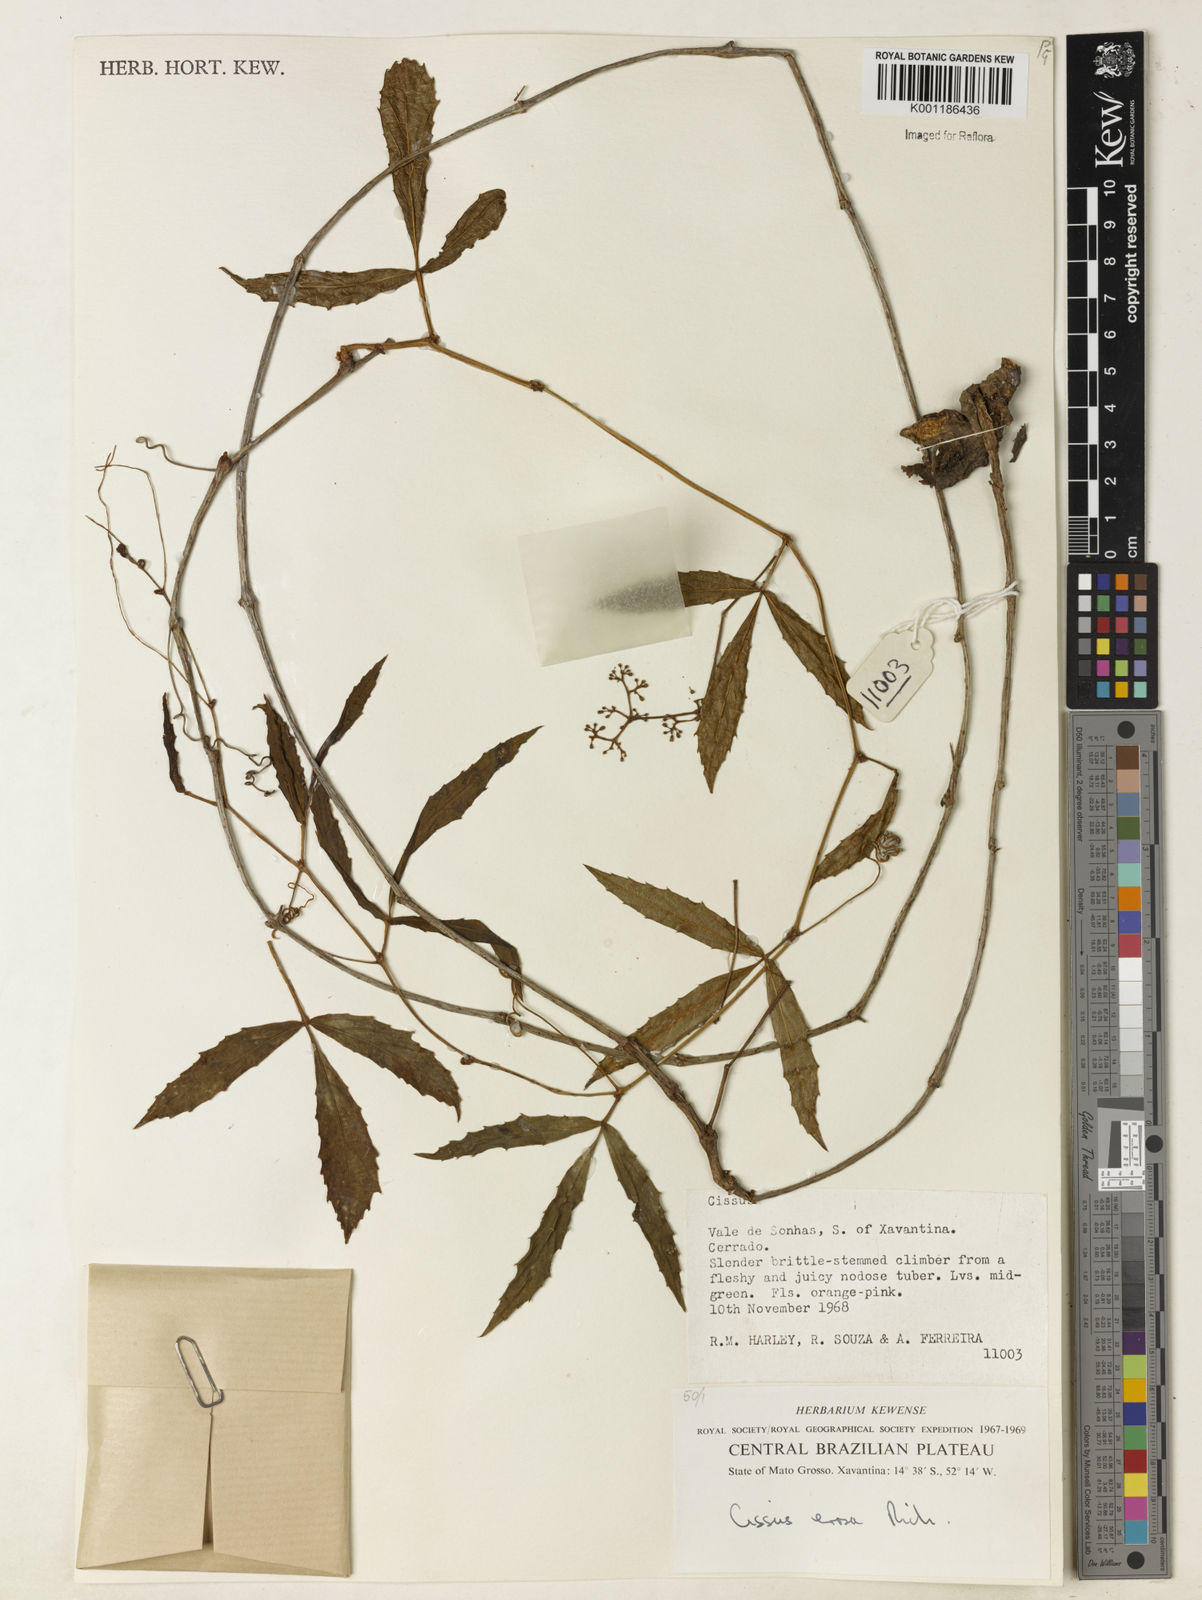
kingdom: Plantae
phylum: Tracheophyta
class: Magnoliopsida
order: Vitales
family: Vitaceae
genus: Cissus
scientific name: Cissus erosa
